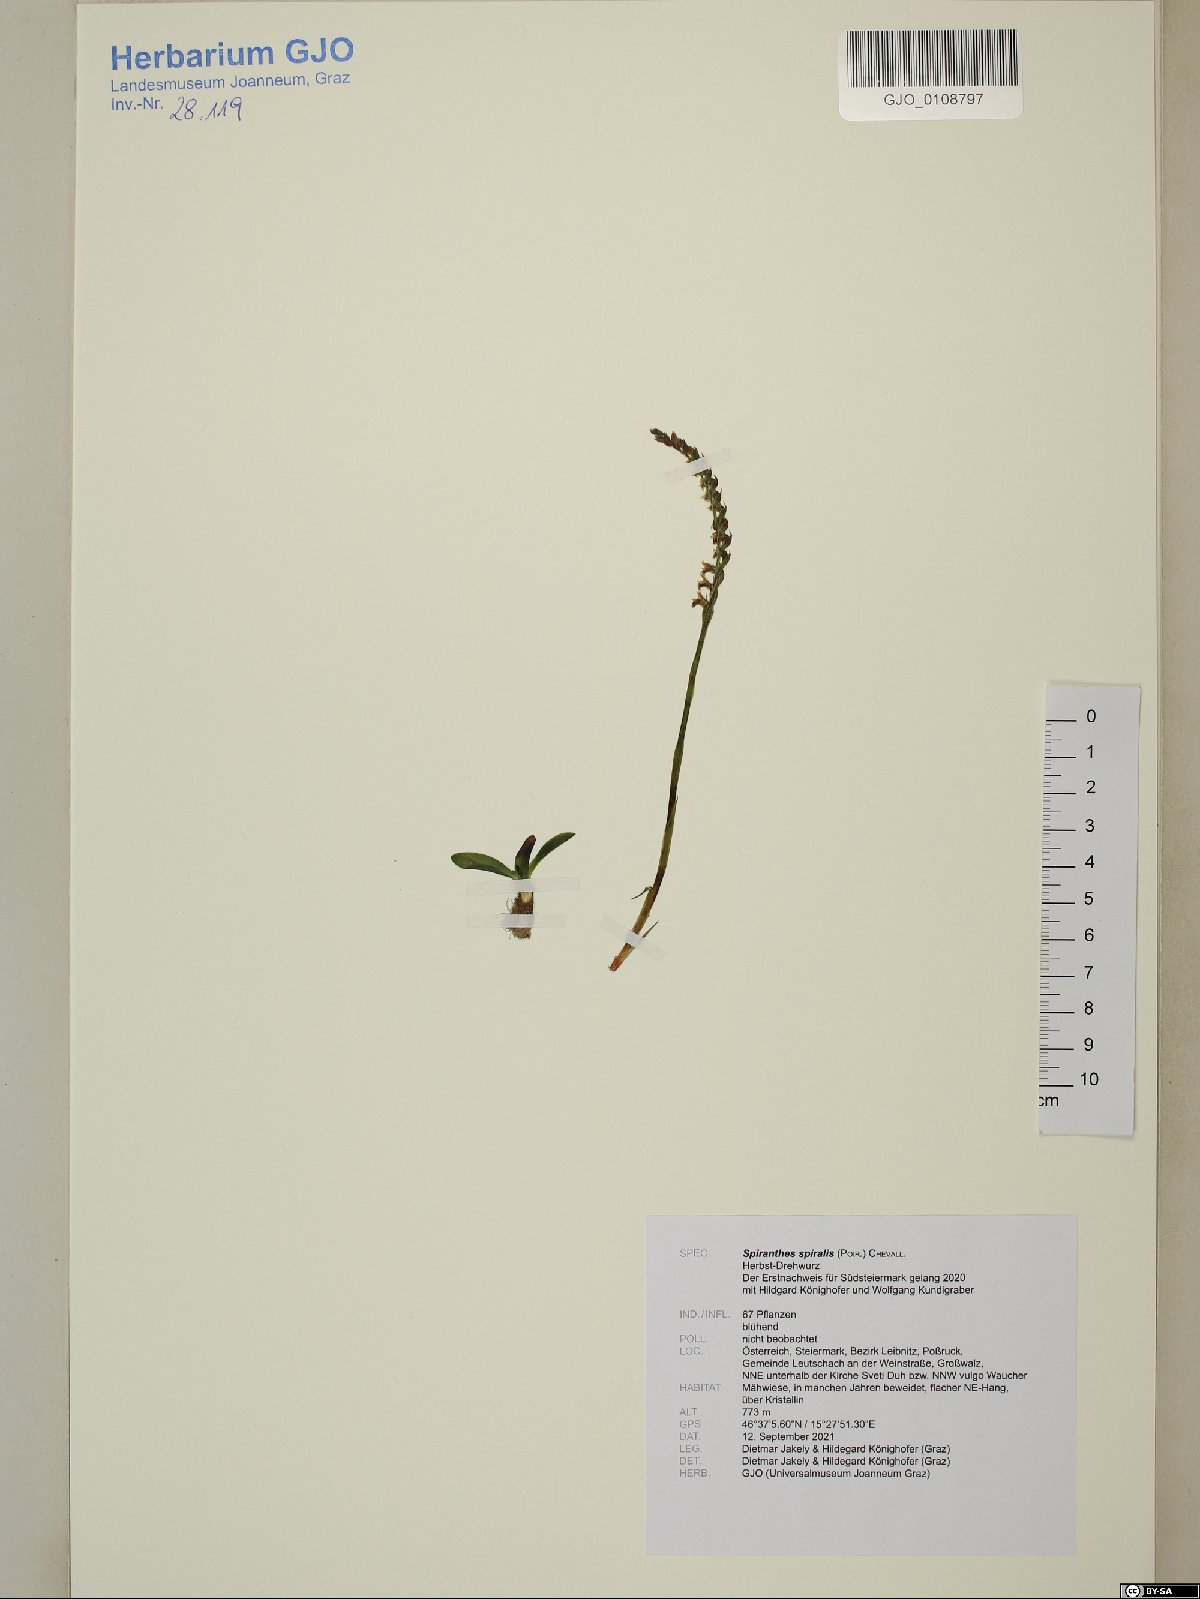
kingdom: Plantae
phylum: Tracheophyta
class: Liliopsida
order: Asparagales
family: Orchidaceae
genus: Spiranthes
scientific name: Spiranthes spiralis
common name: Autumn lady's-tresses
